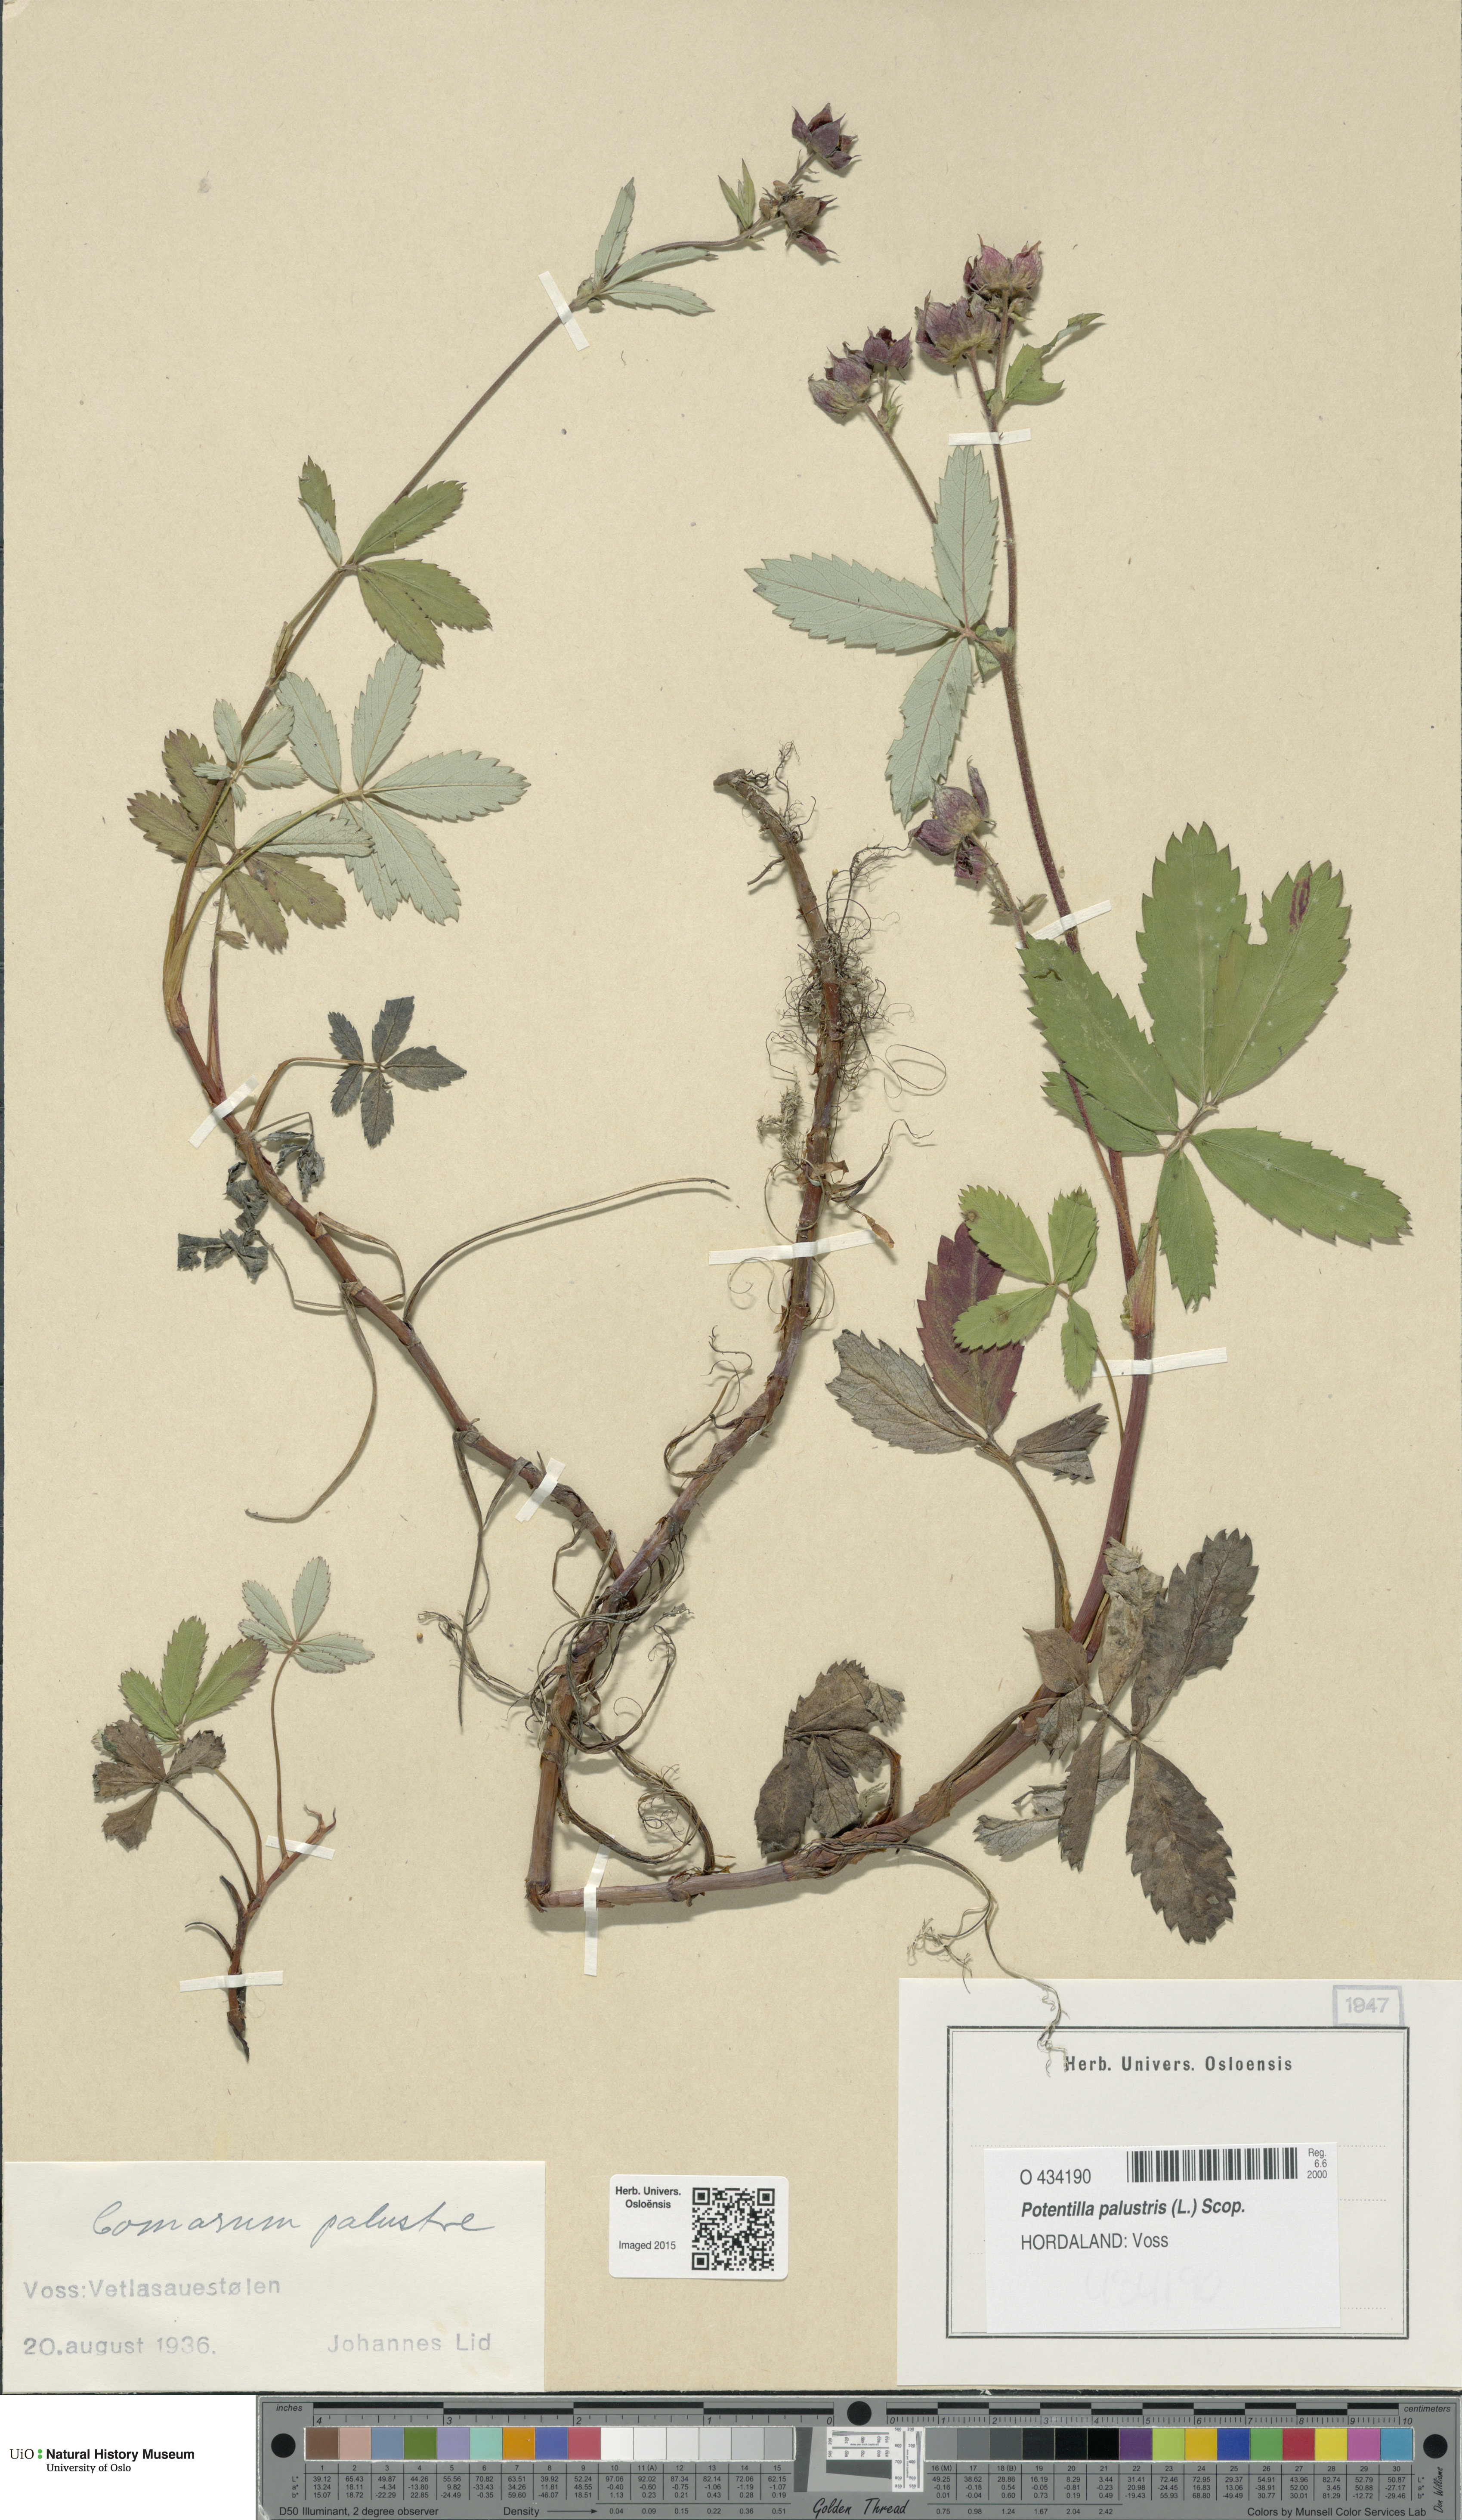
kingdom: Plantae
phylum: Tracheophyta
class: Magnoliopsida
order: Rosales
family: Rosaceae
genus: Comarum
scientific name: Comarum palustre
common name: Marsh cinquefoil
